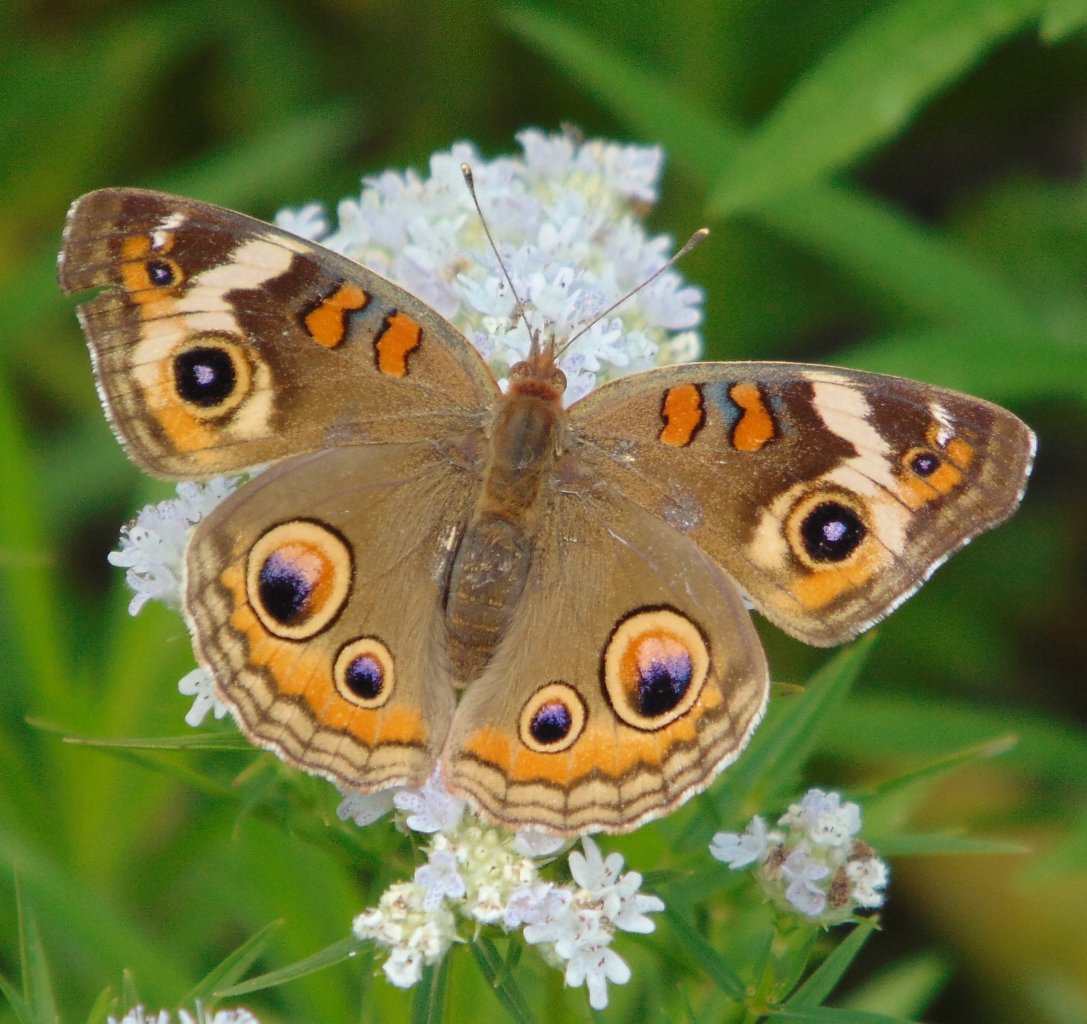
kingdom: Animalia
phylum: Arthropoda
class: Insecta
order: Lepidoptera
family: Nymphalidae
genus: Junonia
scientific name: Junonia coenia
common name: Common Buckeye
